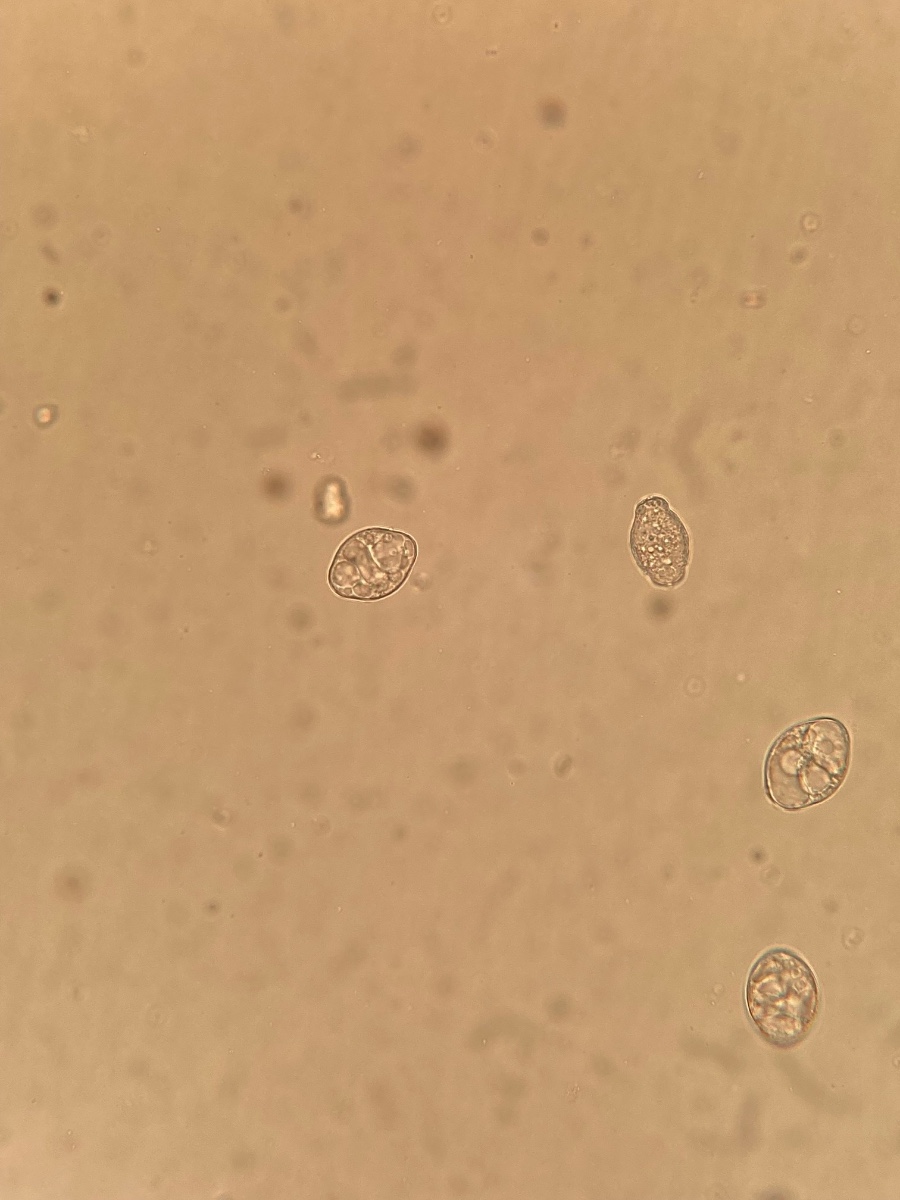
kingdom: Fungi
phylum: Ascomycota
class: Leotiomycetes
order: Helotiales
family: Erysiphaceae
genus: Golovinomyces
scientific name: Golovinomyces depressus
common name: Burdock mildew
